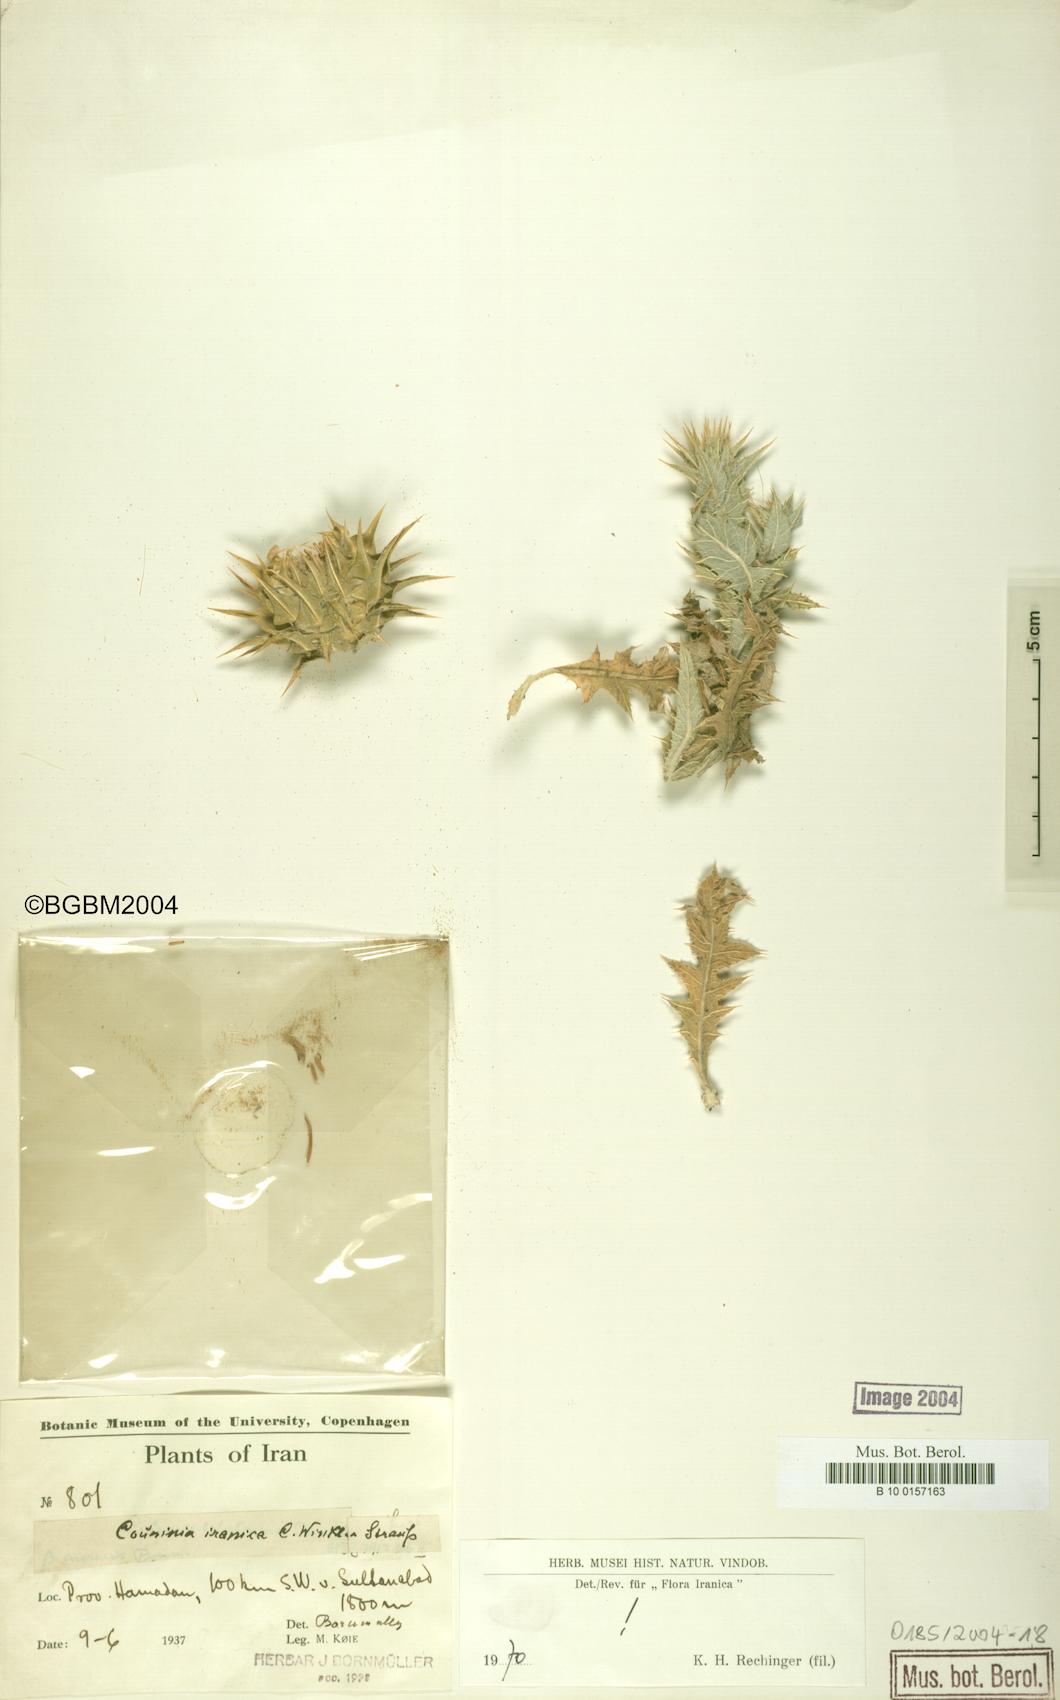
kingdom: Plantae
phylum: Tracheophyta
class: Magnoliopsida
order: Asterales
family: Asteraceae
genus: Cousinia
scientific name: Cousinia sagittata
